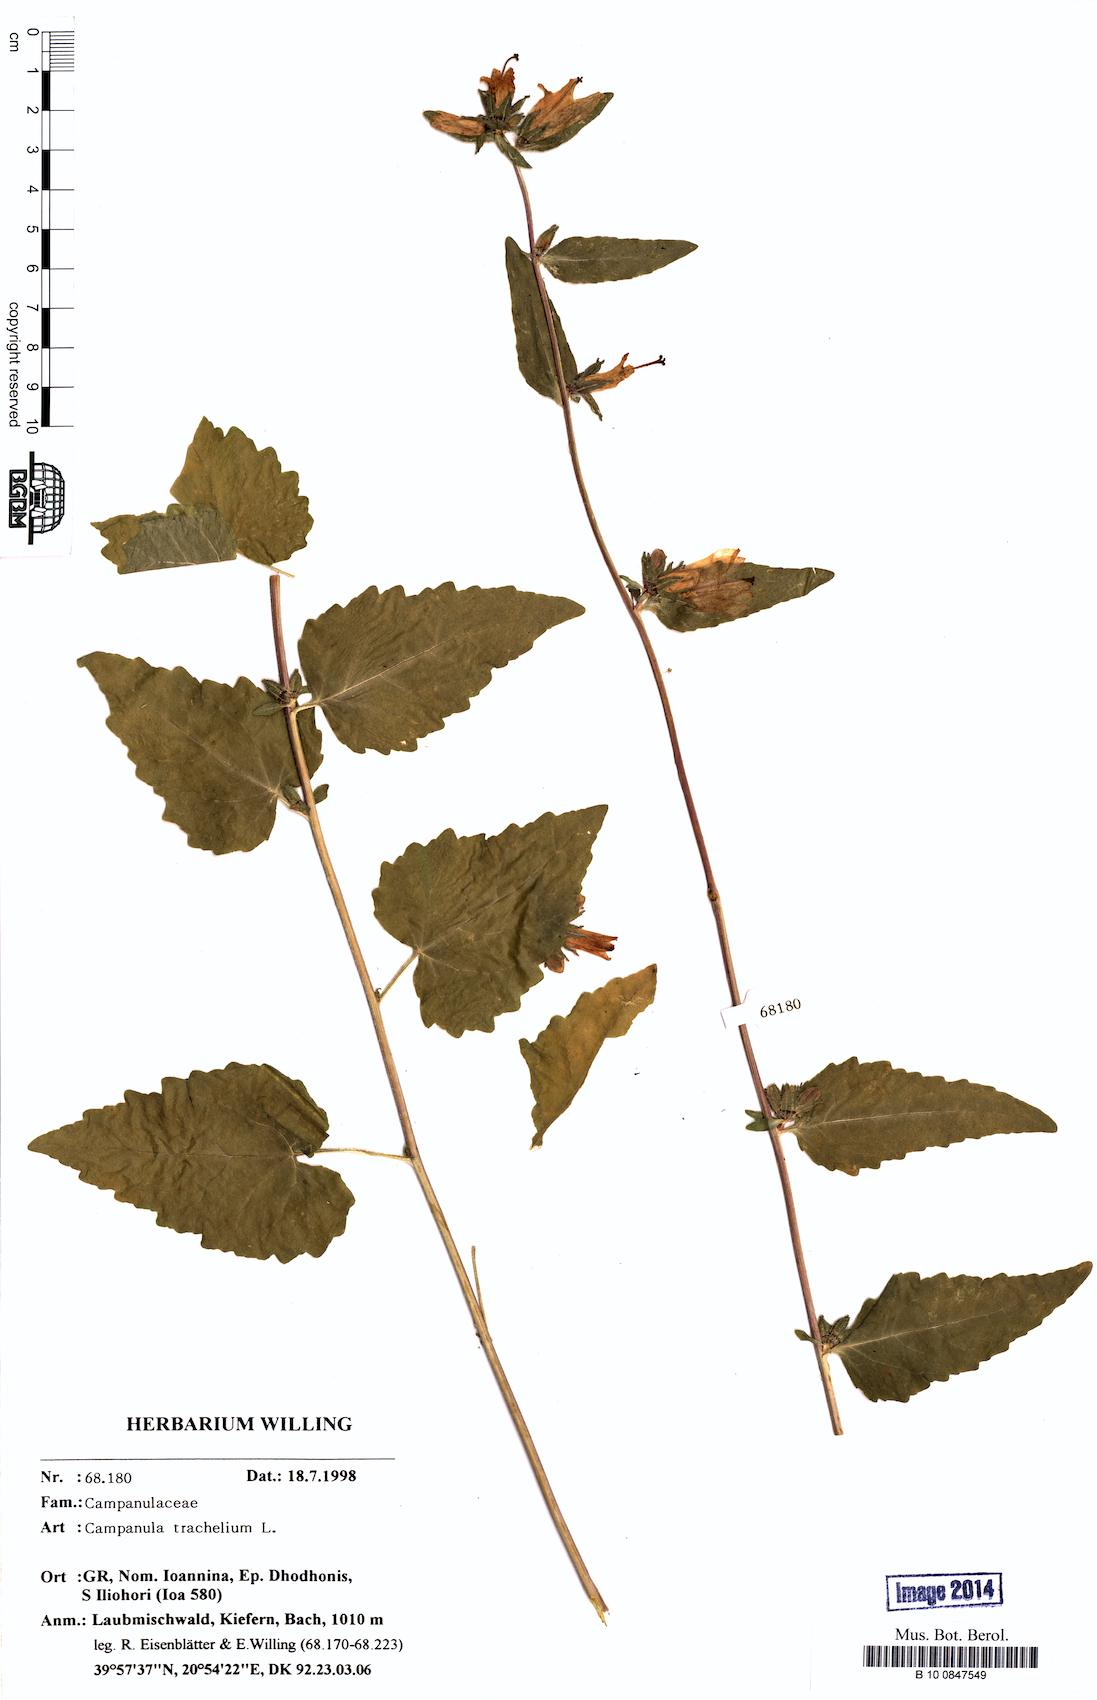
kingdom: Plantae
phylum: Tracheophyta
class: Magnoliopsida
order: Asterales
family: Campanulaceae
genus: Campanula
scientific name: Campanula trachelium
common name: Nettle-leaved bellflower
